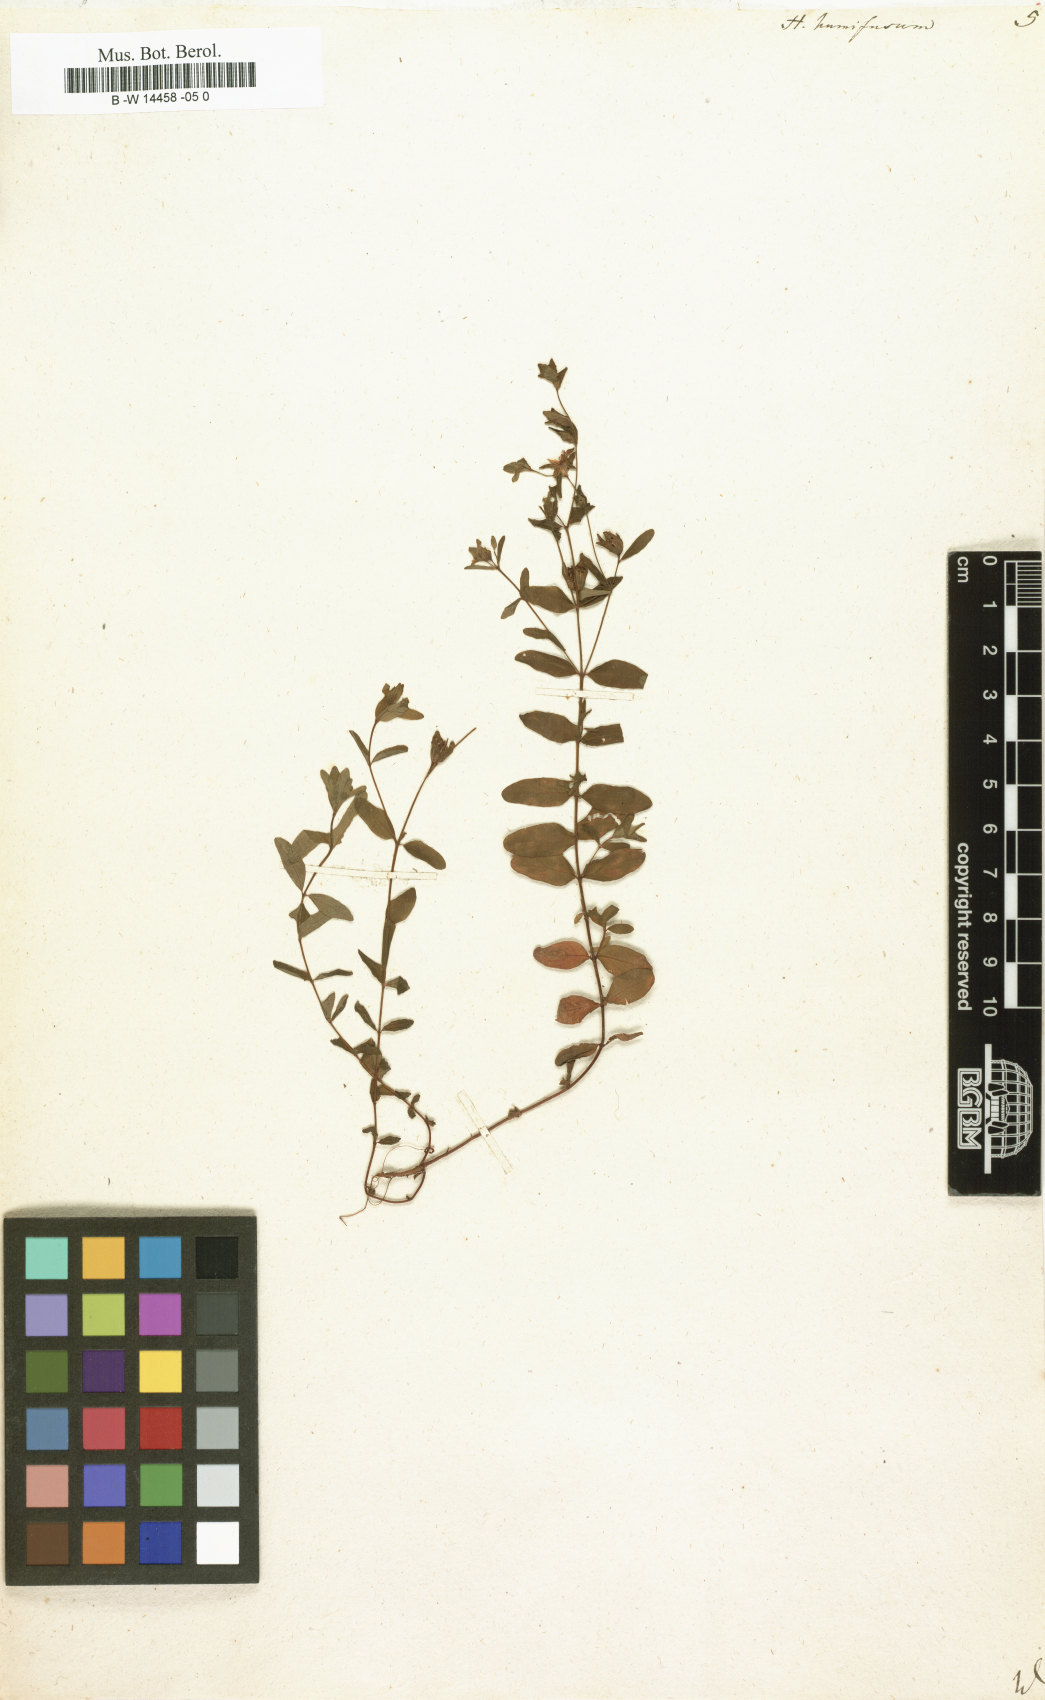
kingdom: Plantae
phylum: Tracheophyta
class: Magnoliopsida
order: Malpighiales
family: Hypericaceae
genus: Hypericum
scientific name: Hypericum humifusum
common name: Trailing st. john's-wort
